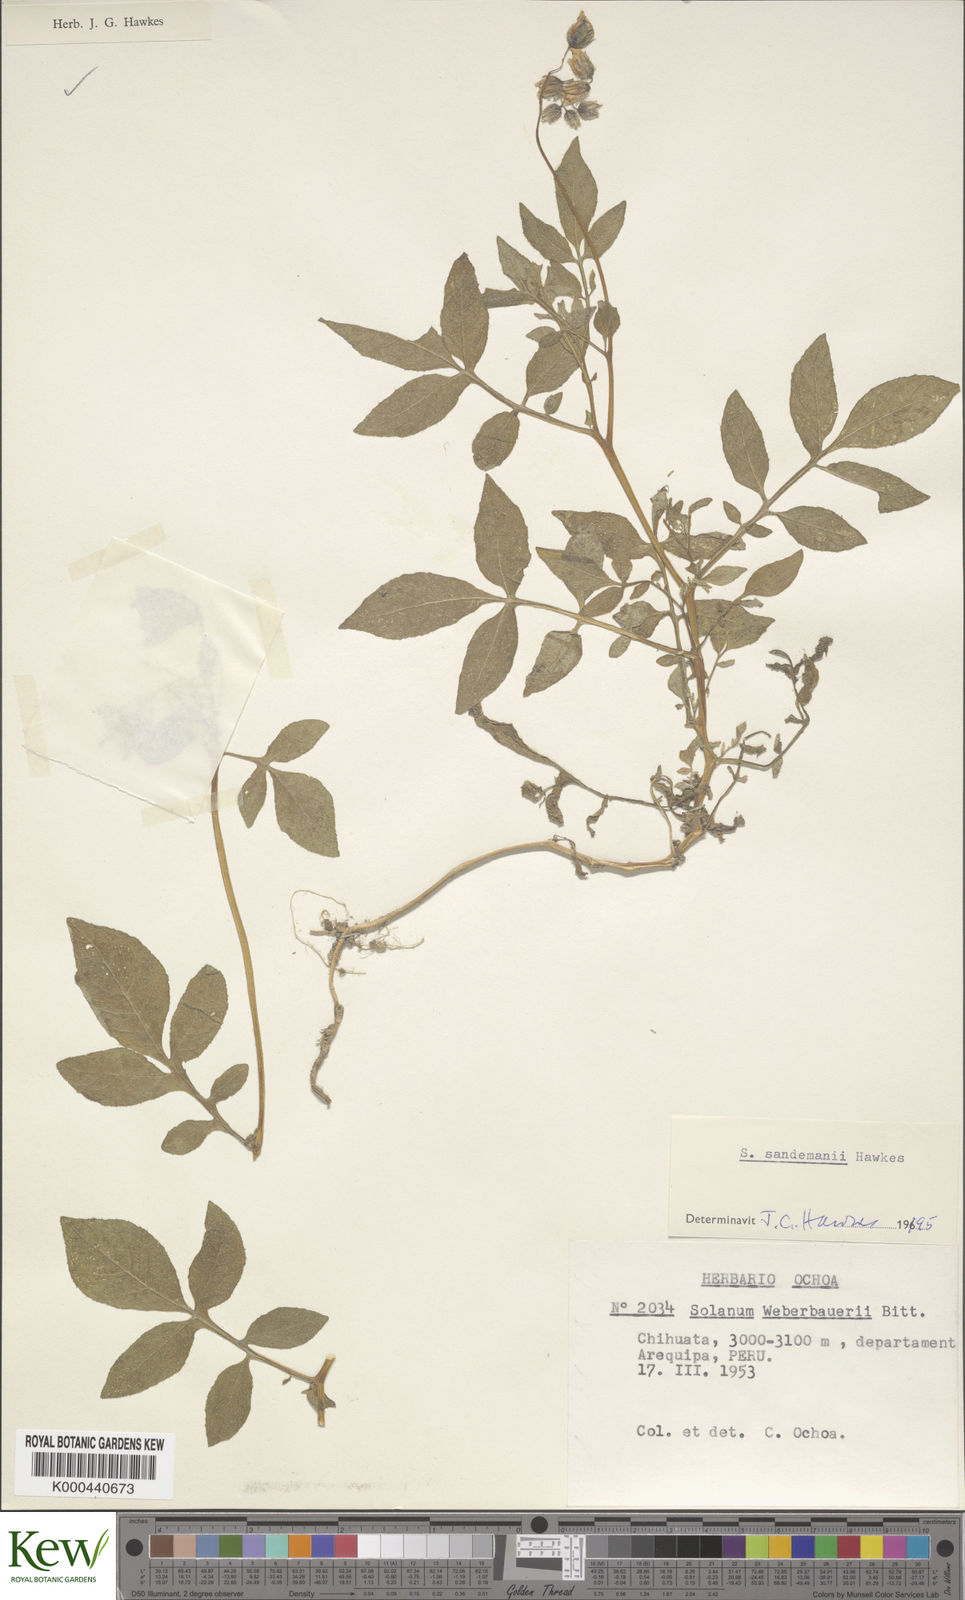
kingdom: Plantae
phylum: Tracheophyta
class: Magnoliopsida
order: Solanales
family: Solanaceae
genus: Solanum
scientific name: Solanum medians
